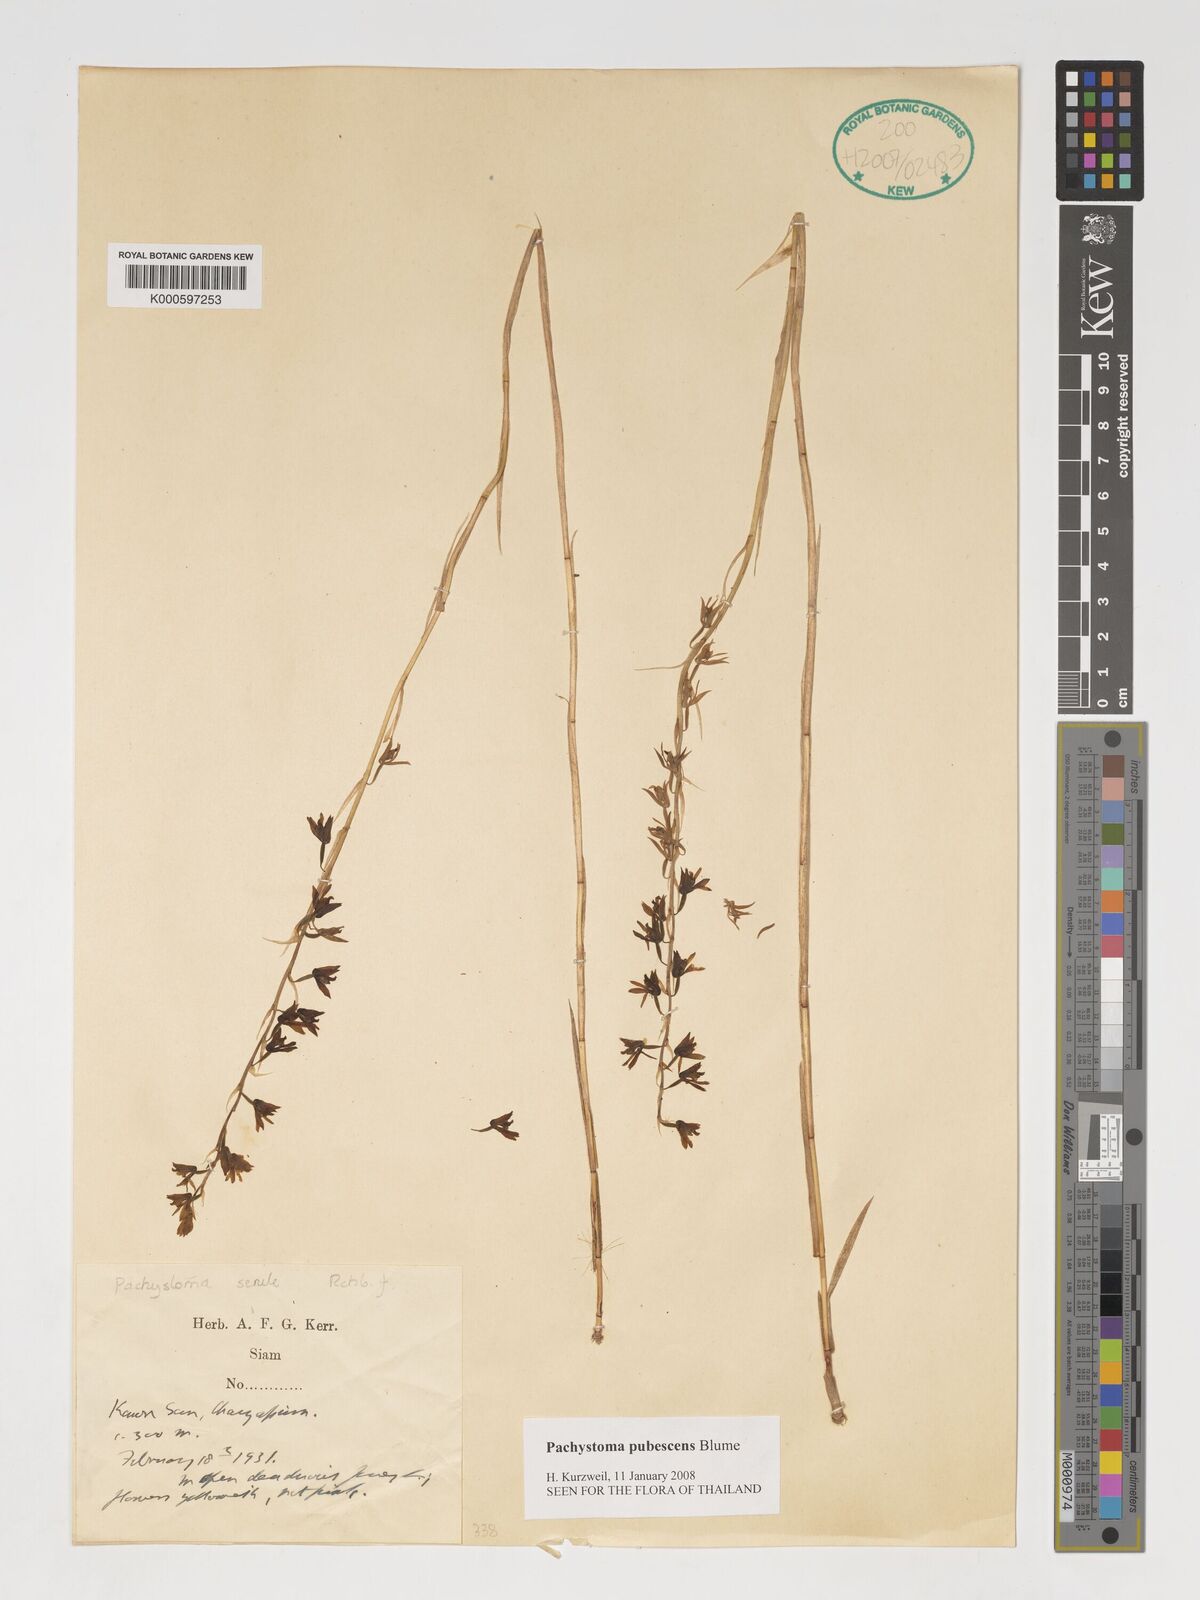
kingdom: Plantae
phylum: Tracheophyta
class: Liliopsida
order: Asparagales
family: Orchidaceae
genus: Pachystoma
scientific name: Pachystoma pubescens
